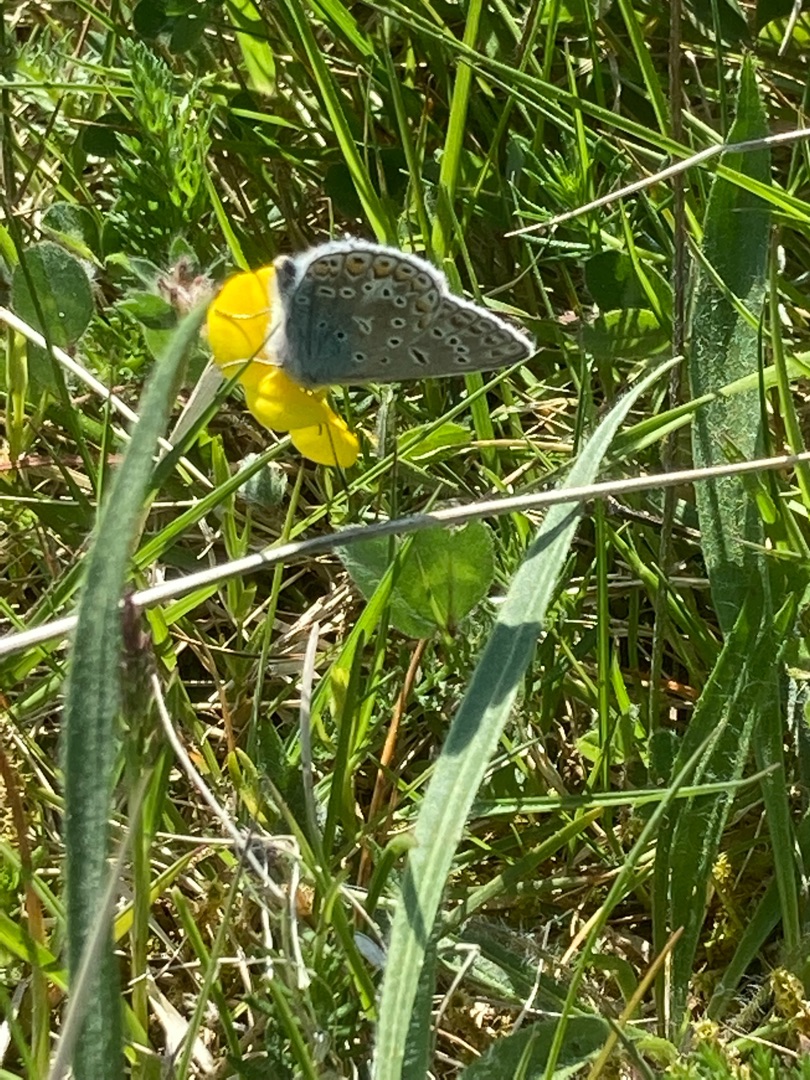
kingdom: Animalia
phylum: Arthropoda
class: Insecta
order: Lepidoptera
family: Lycaenidae
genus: Polyommatus
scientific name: Polyommatus icarus
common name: Almindelig blåfugl
